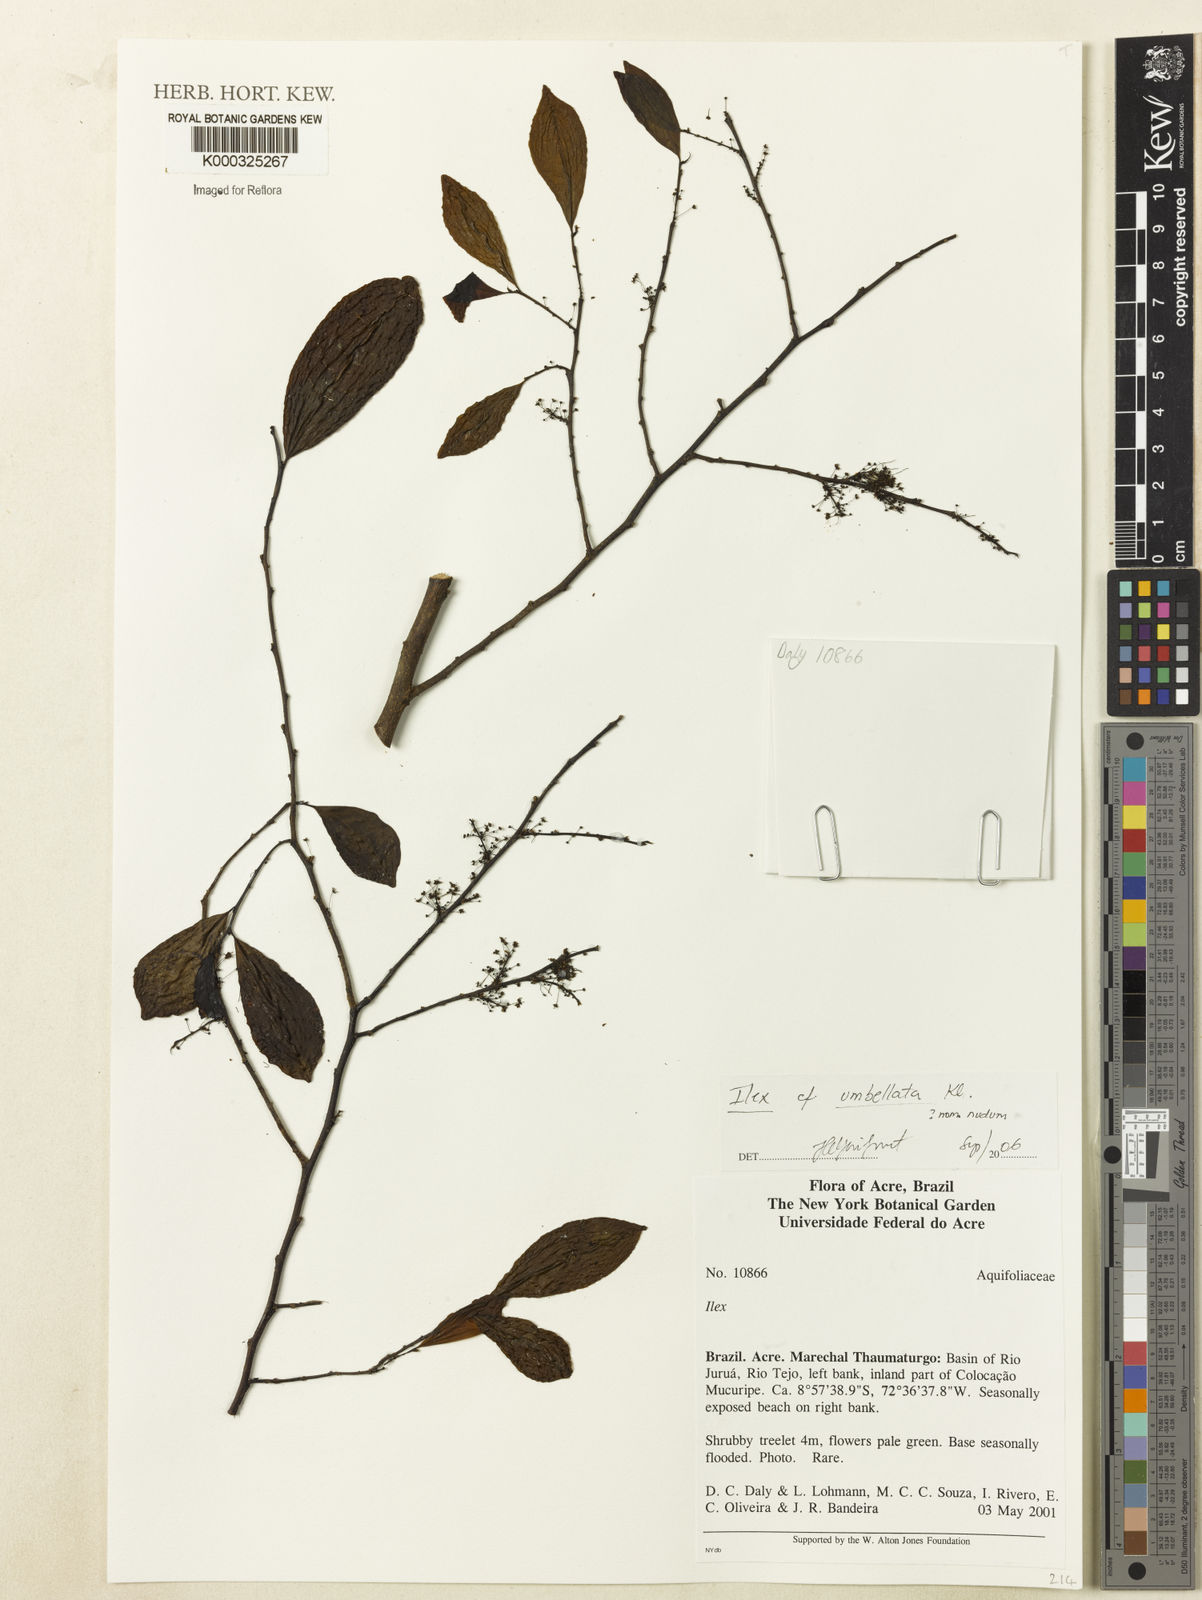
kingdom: Plantae
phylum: Tracheophyta
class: Magnoliopsida
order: Aquifoliales
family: Aquifoliaceae
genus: Ilex
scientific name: Ilex
